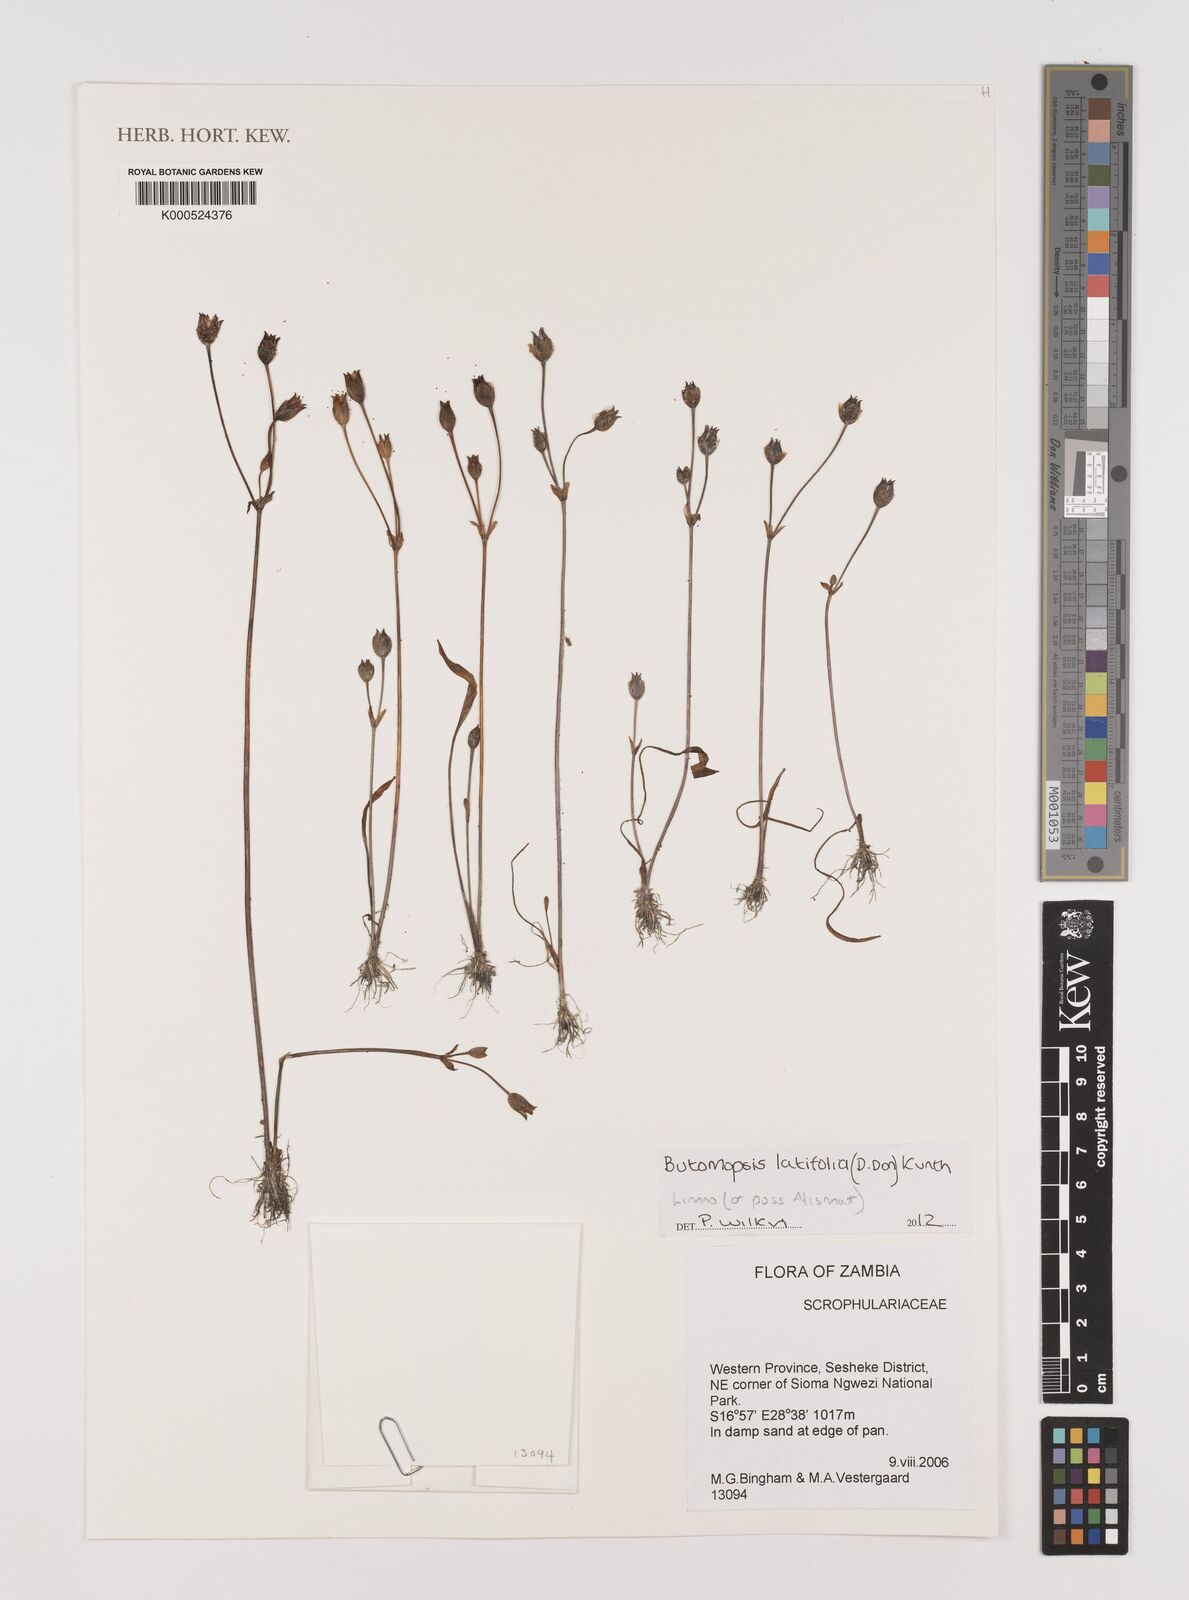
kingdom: Plantae
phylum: Tracheophyta
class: Liliopsida
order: Alismatales
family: Alismataceae
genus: Butomopsis
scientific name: Butomopsis latifolia
